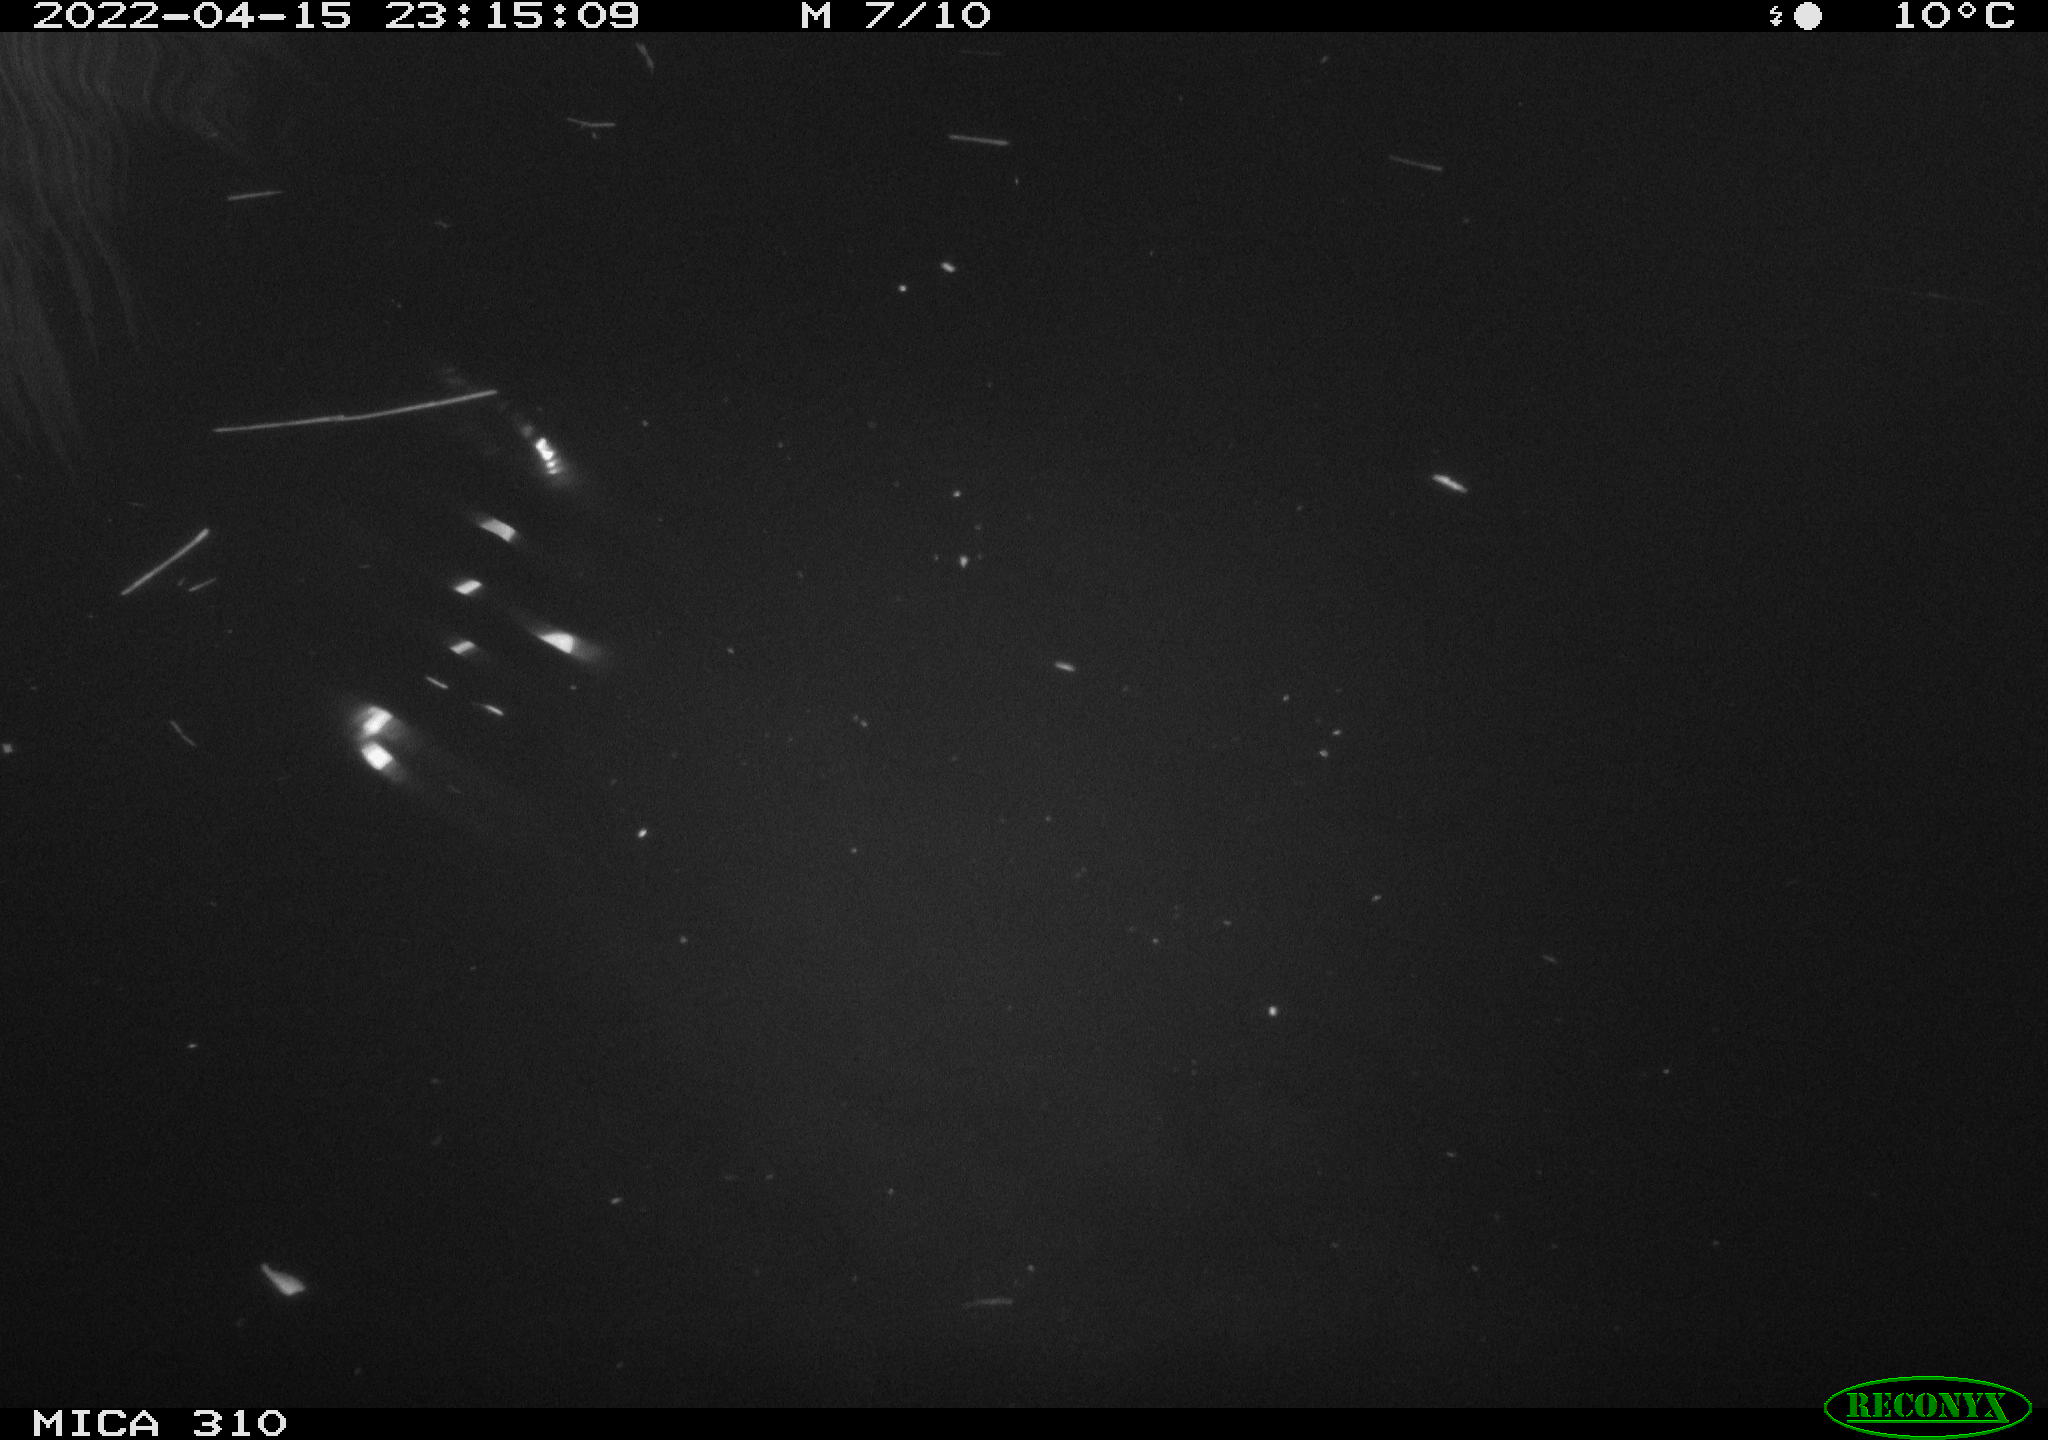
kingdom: Animalia
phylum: Chordata
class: Aves
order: Anseriformes
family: Anatidae
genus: Anas
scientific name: Anas platyrhynchos
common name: Mallard
